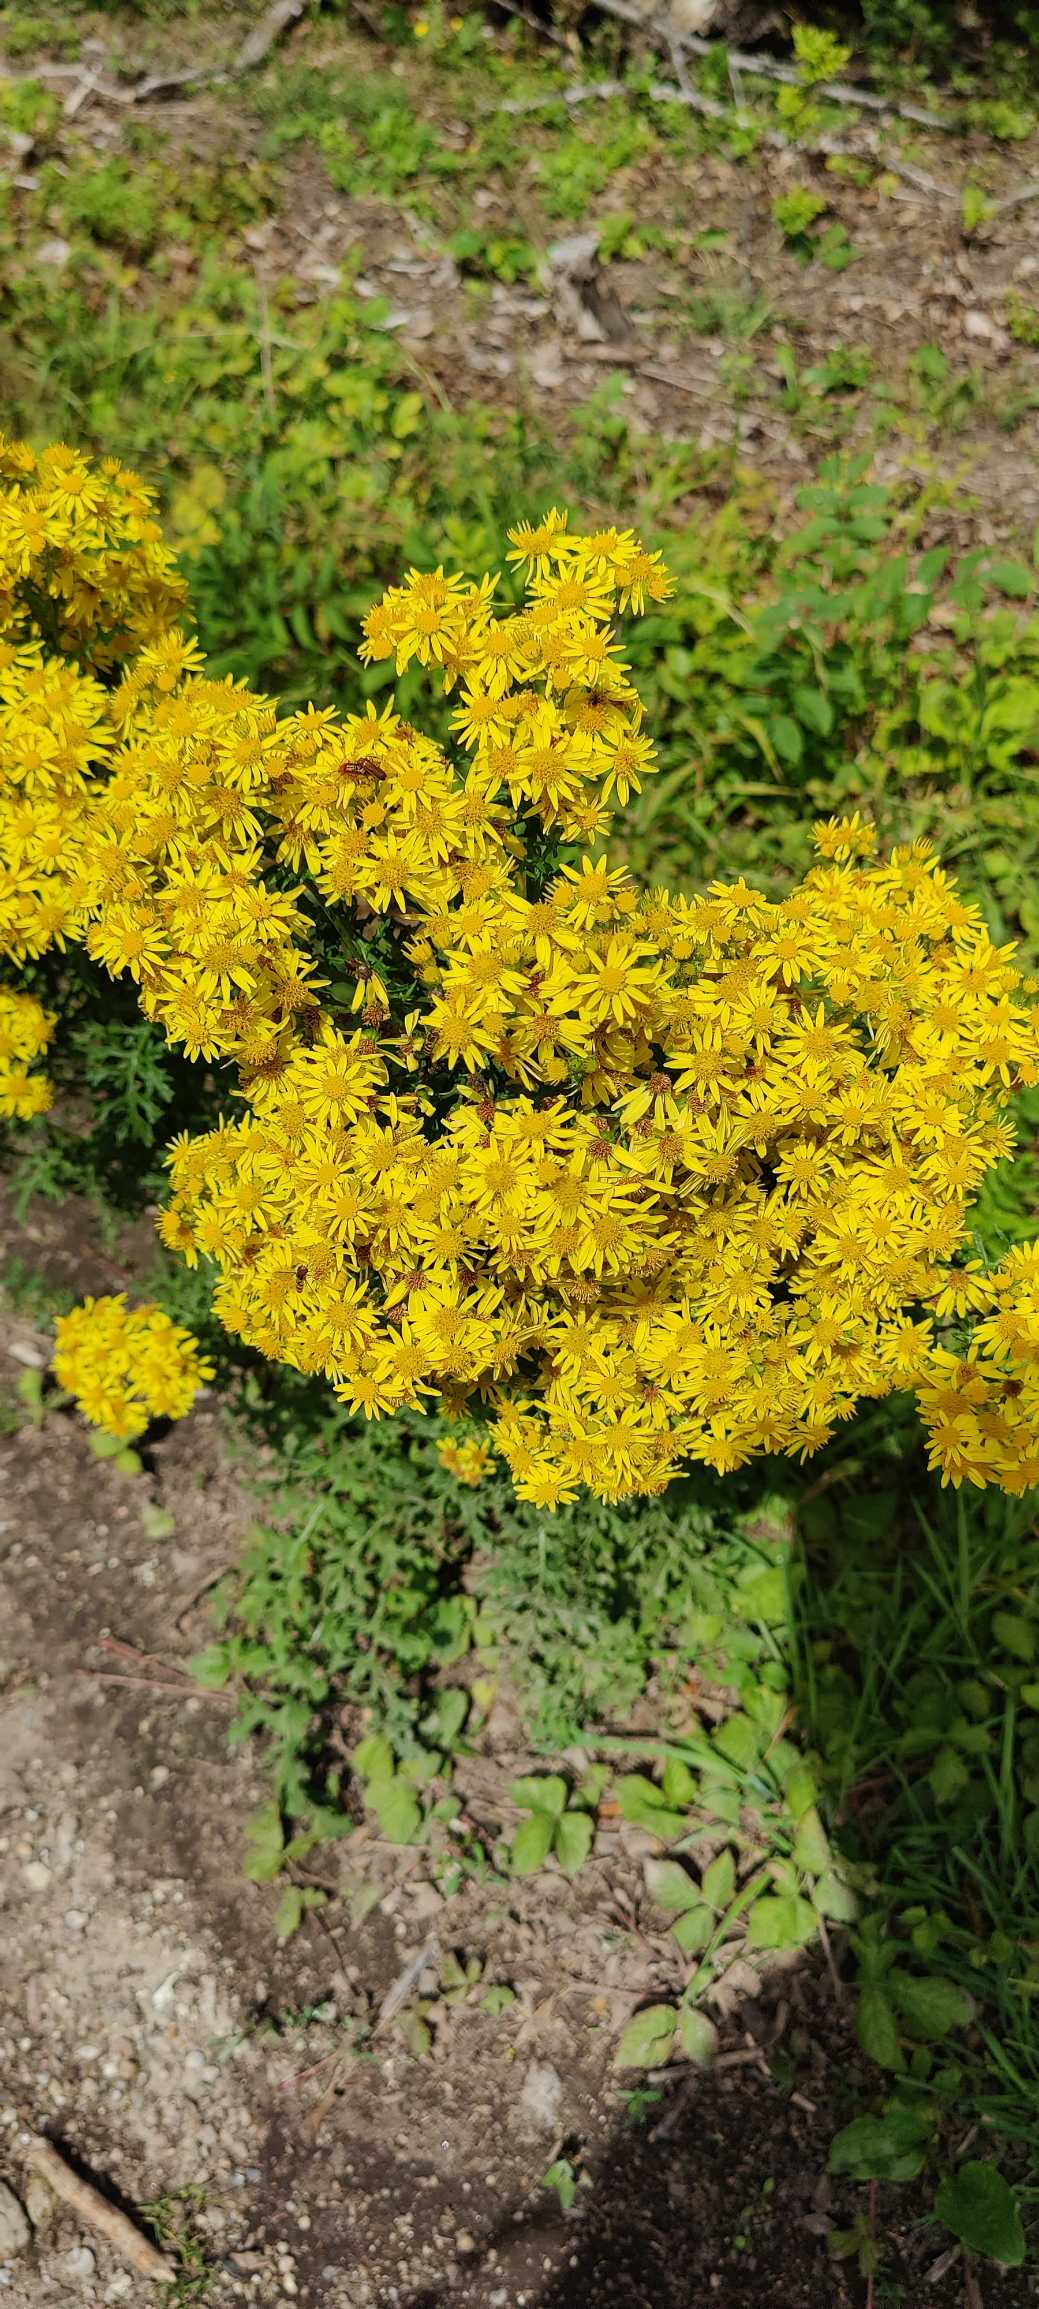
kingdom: Plantae
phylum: Tracheophyta
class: Magnoliopsida
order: Asterales
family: Asteraceae
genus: Jacobaea
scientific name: Jacobaea vulgaris
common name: Eng-brandbæger
